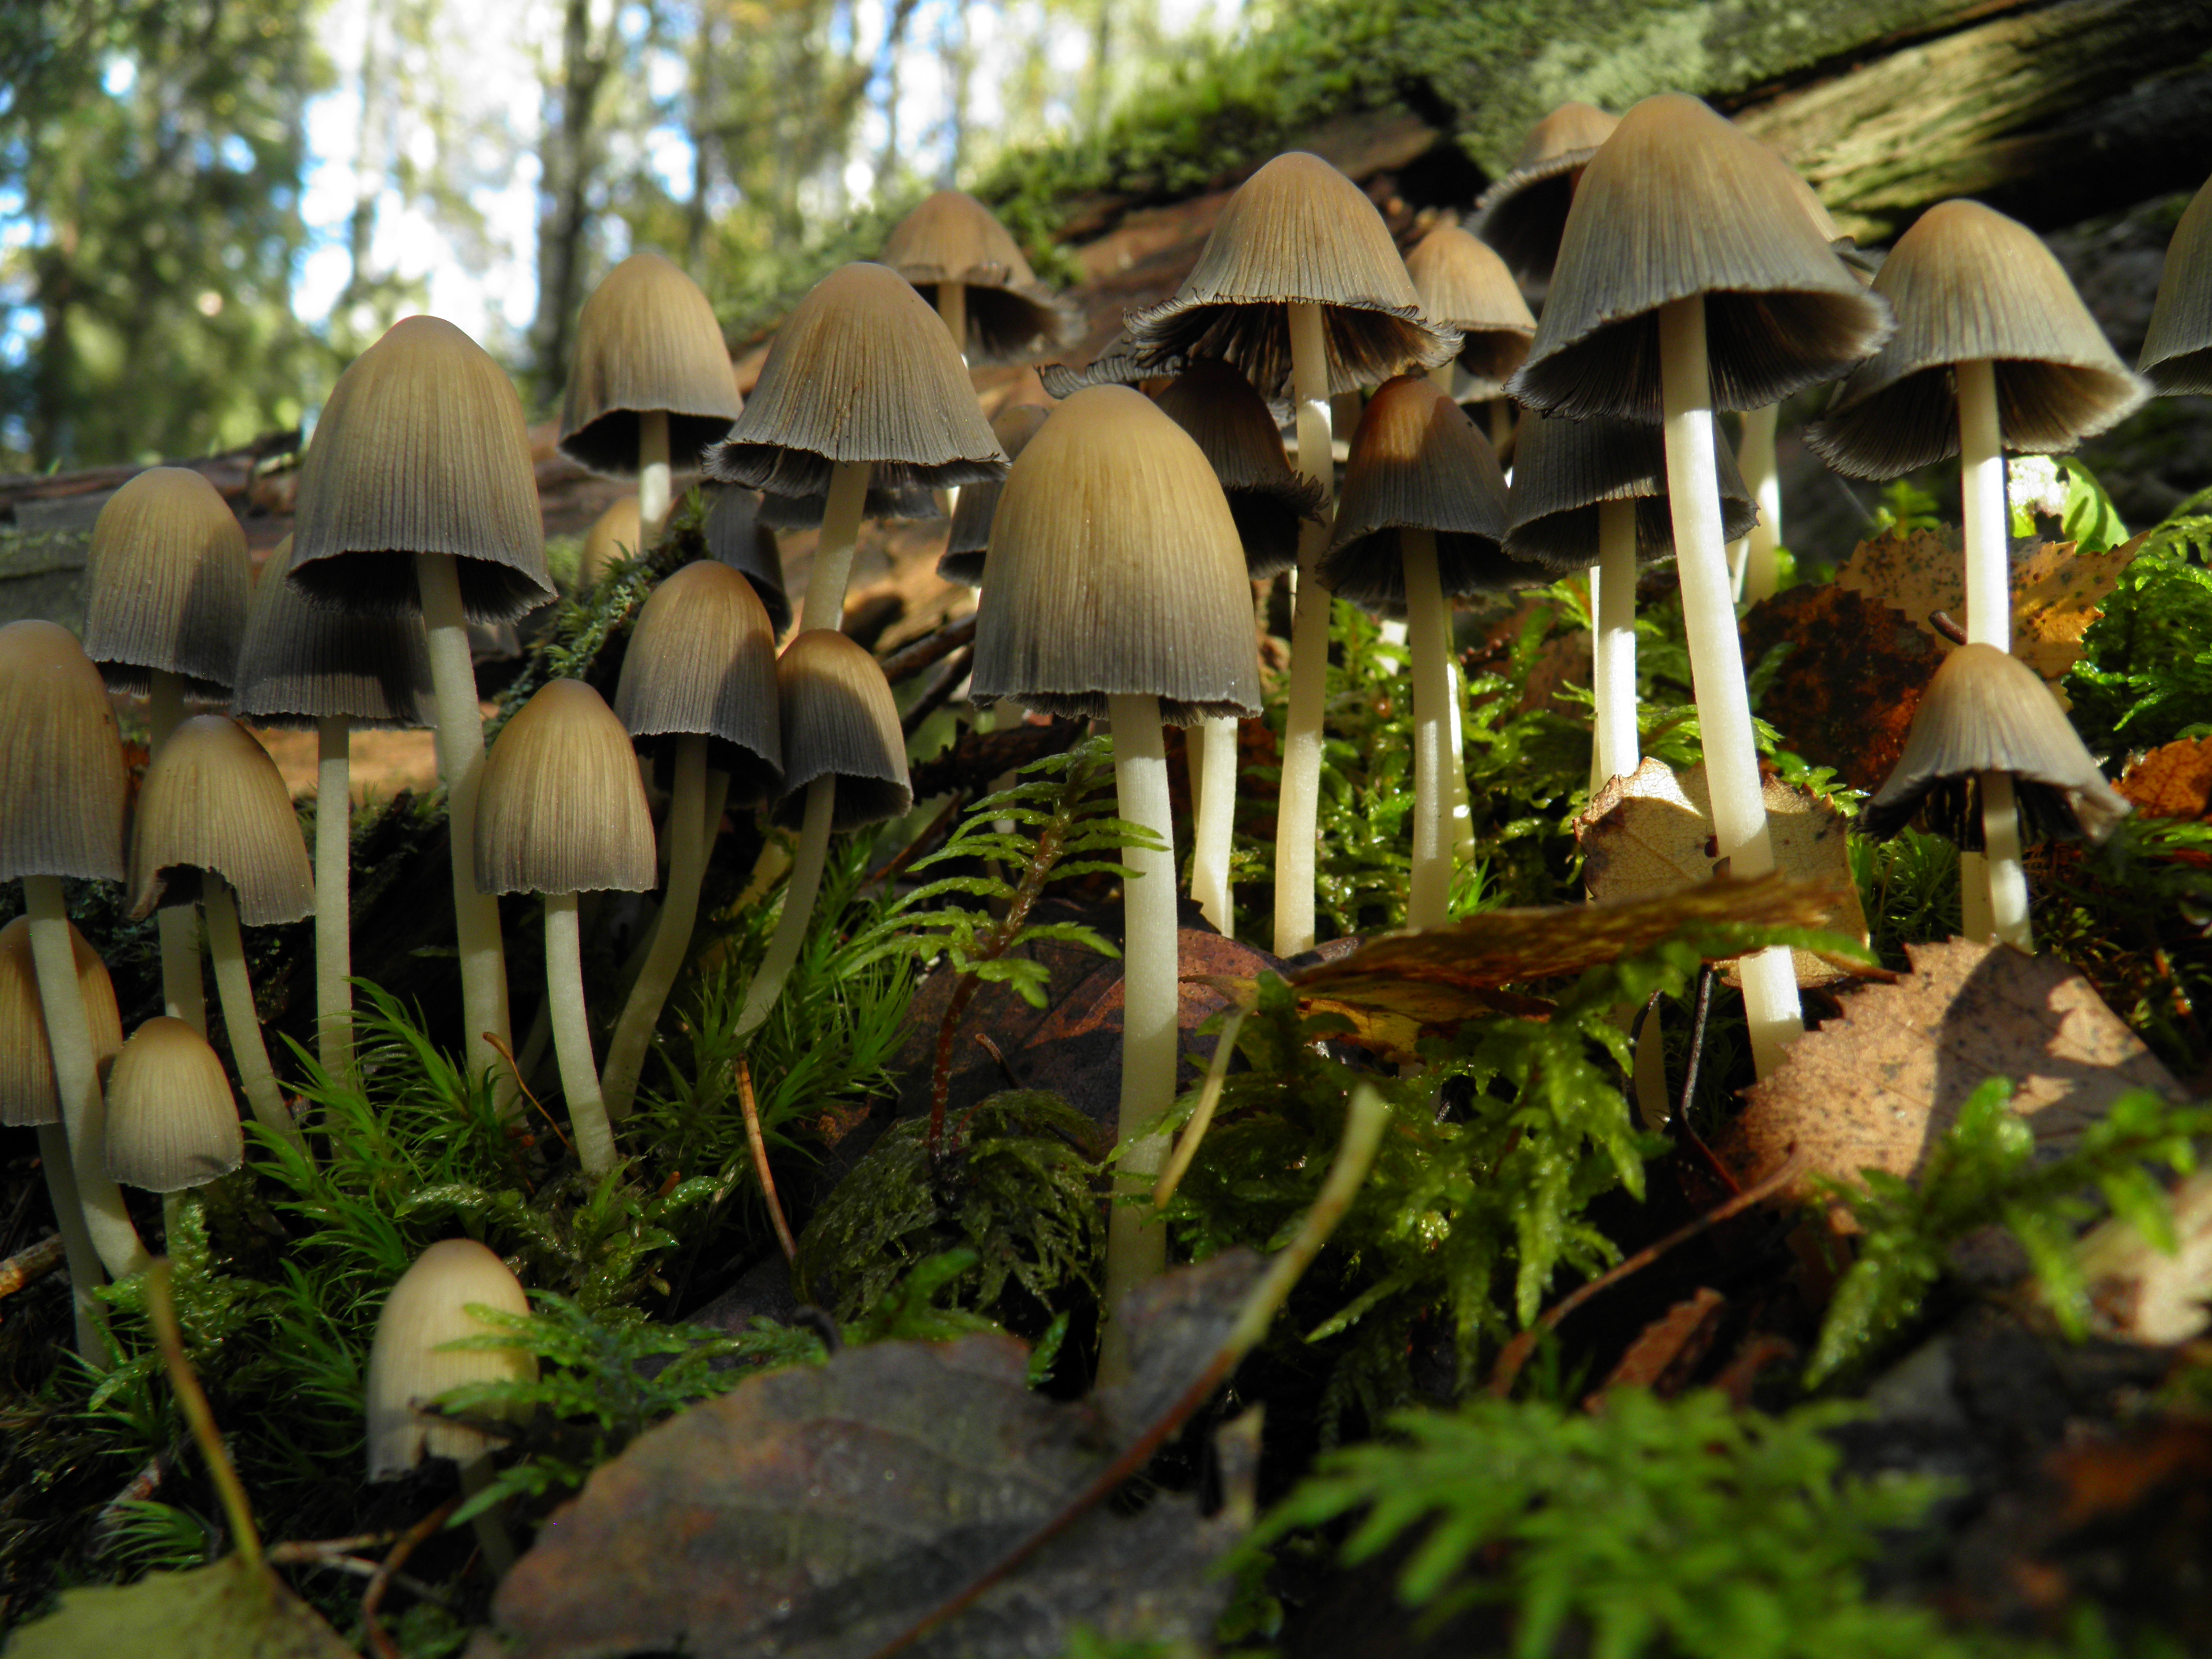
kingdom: Fungi
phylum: Basidiomycota
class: Agaricomycetes
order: Agaricales
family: Psathyrellaceae
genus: Coprinellus
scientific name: Coprinellus micaceus
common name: Glistening ink-cap
